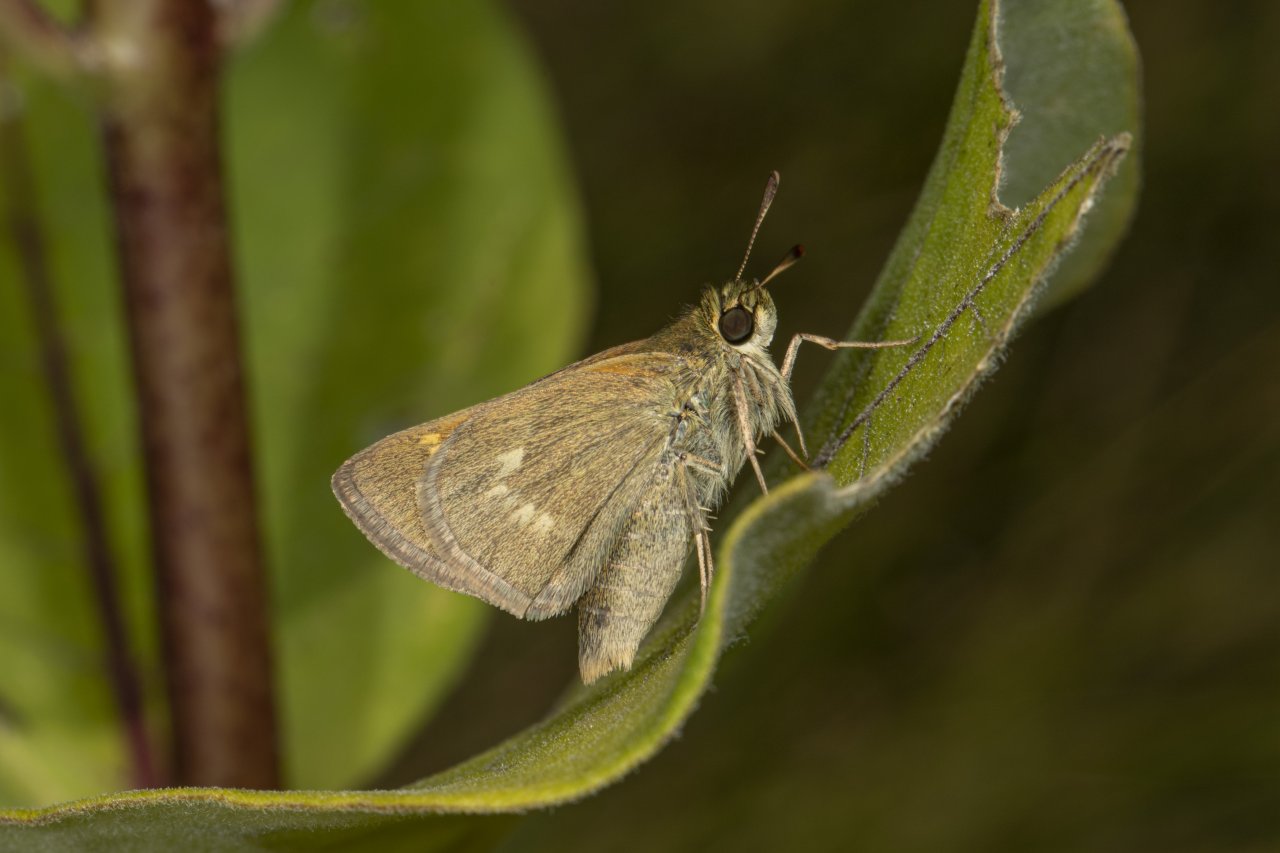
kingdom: Animalia
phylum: Arthropoda
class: Insecta
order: Lepidoptera
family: Hesperiidae
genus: Polites
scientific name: Polites
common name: Crossline Skipper
